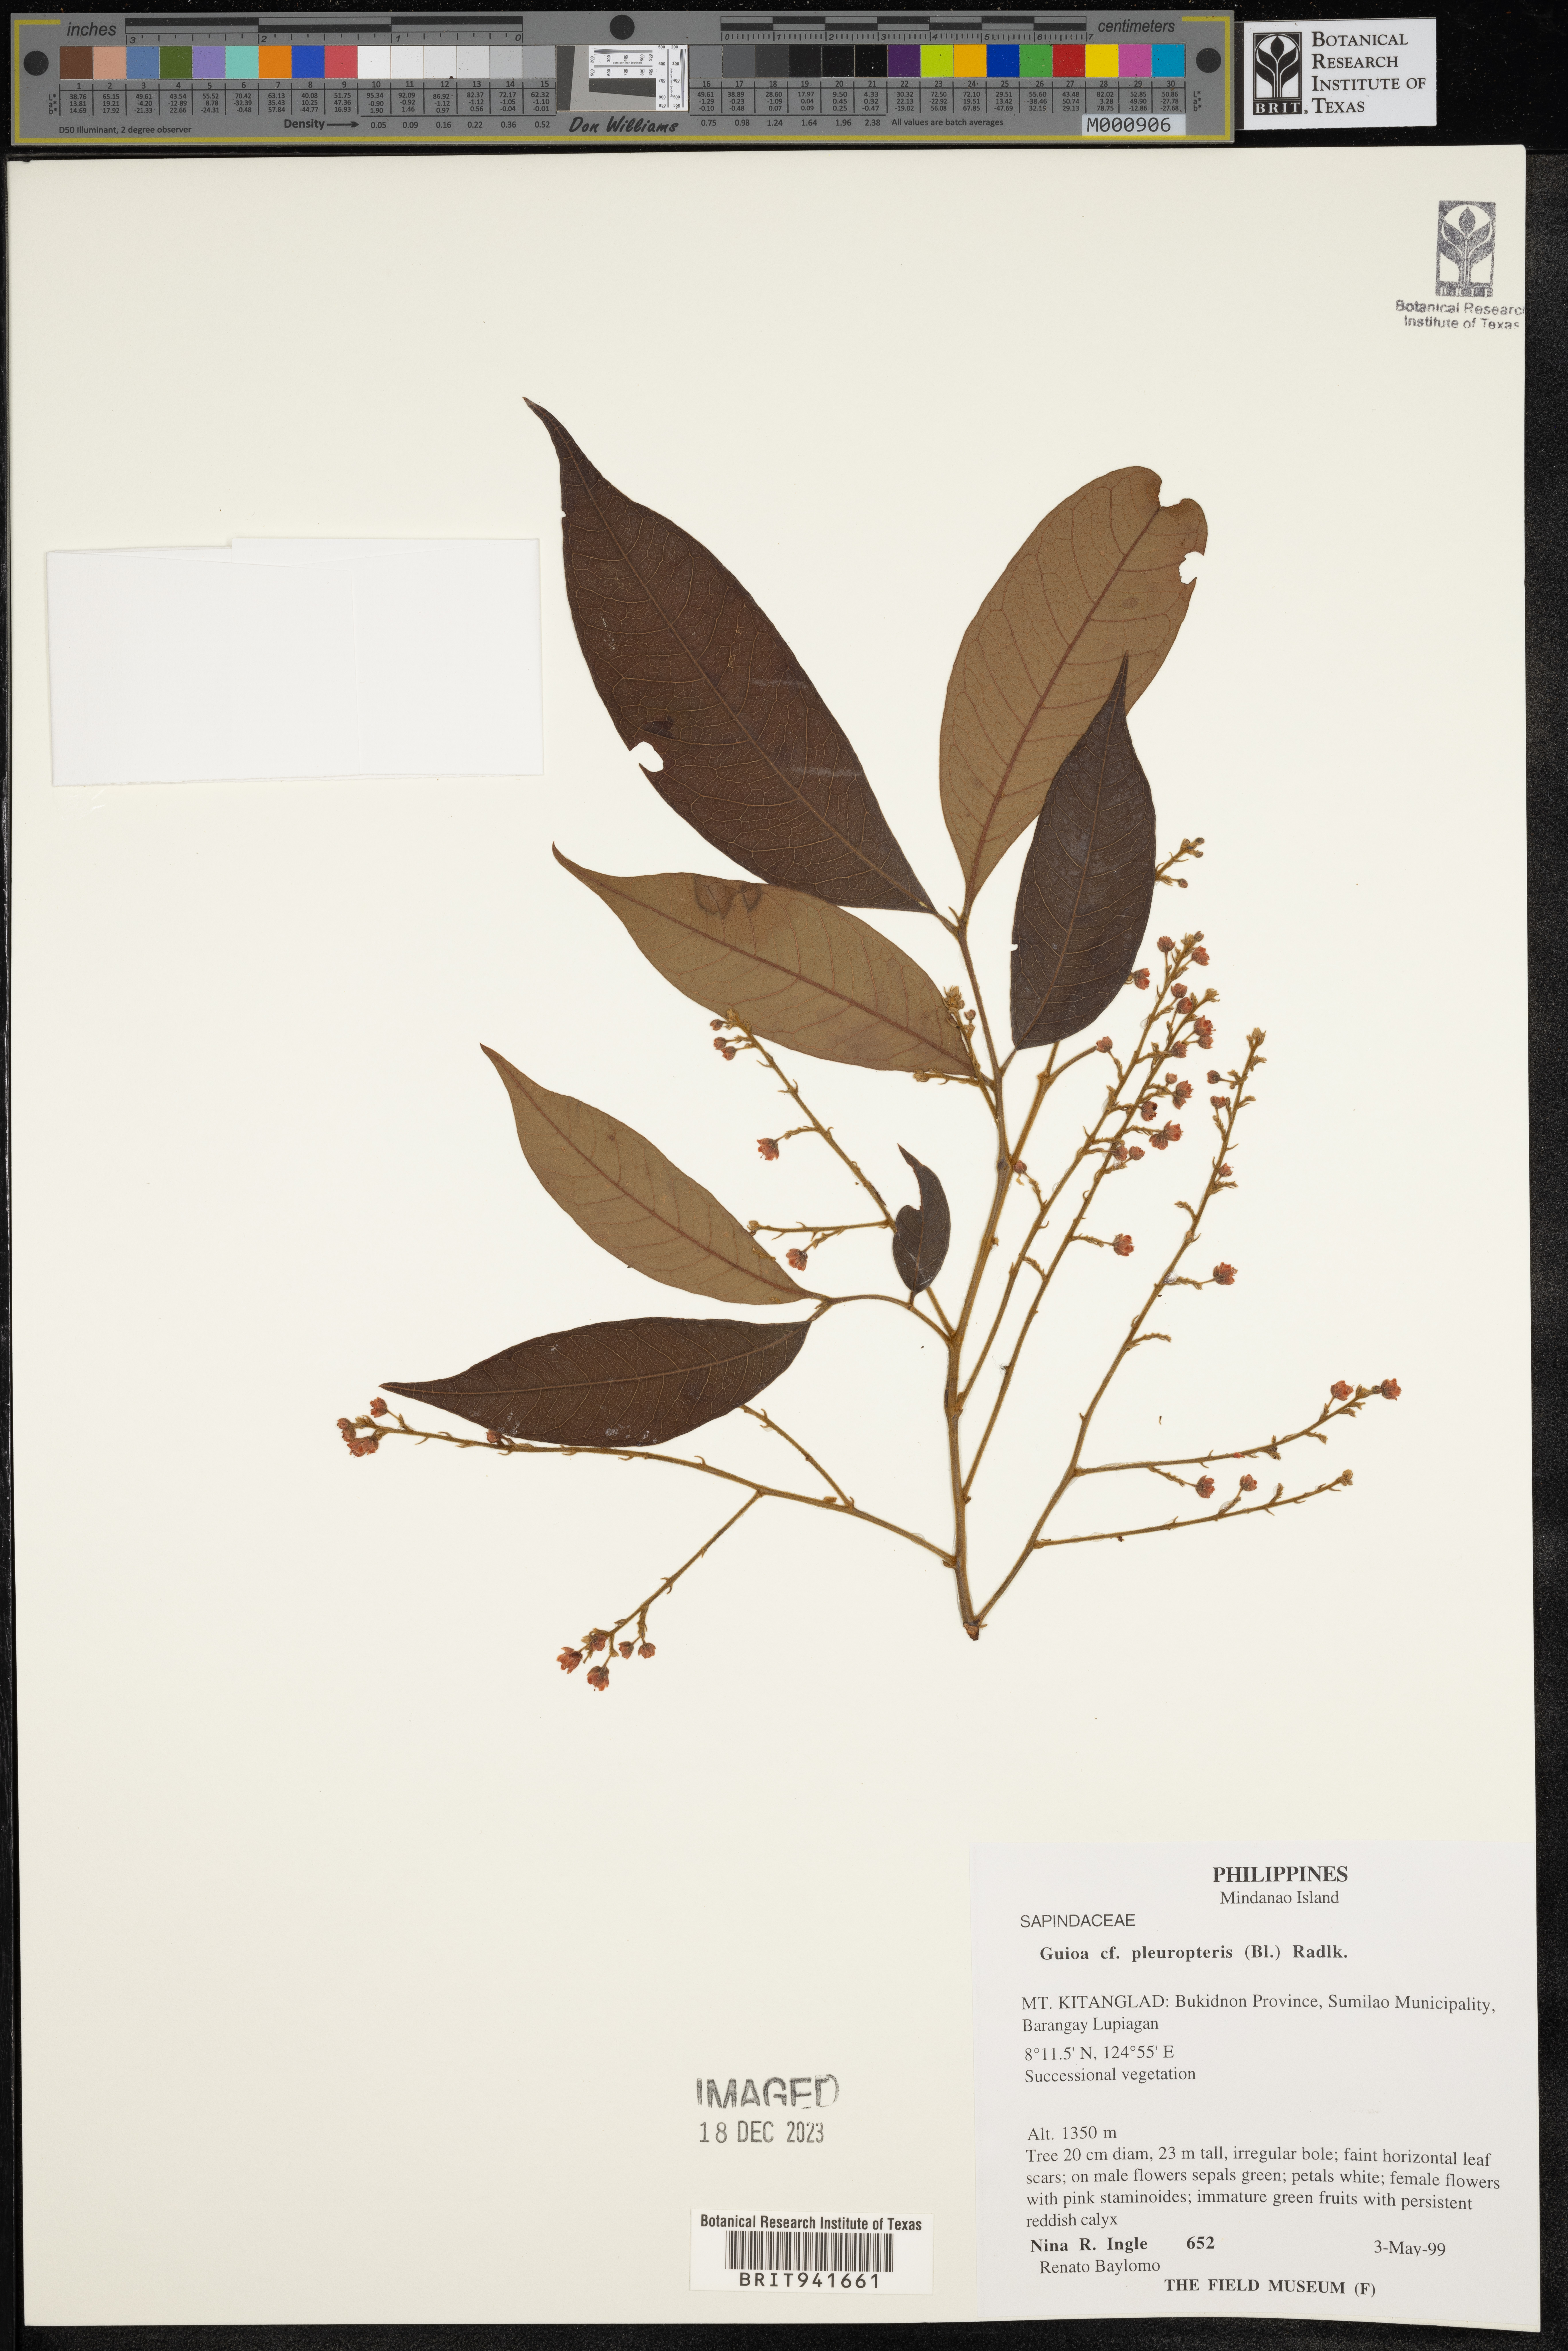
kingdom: Plantae
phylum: Tracheophyta
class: Magnoliopsida
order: Sapindales
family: Sapindaceae
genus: Guioa
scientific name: Guioa
